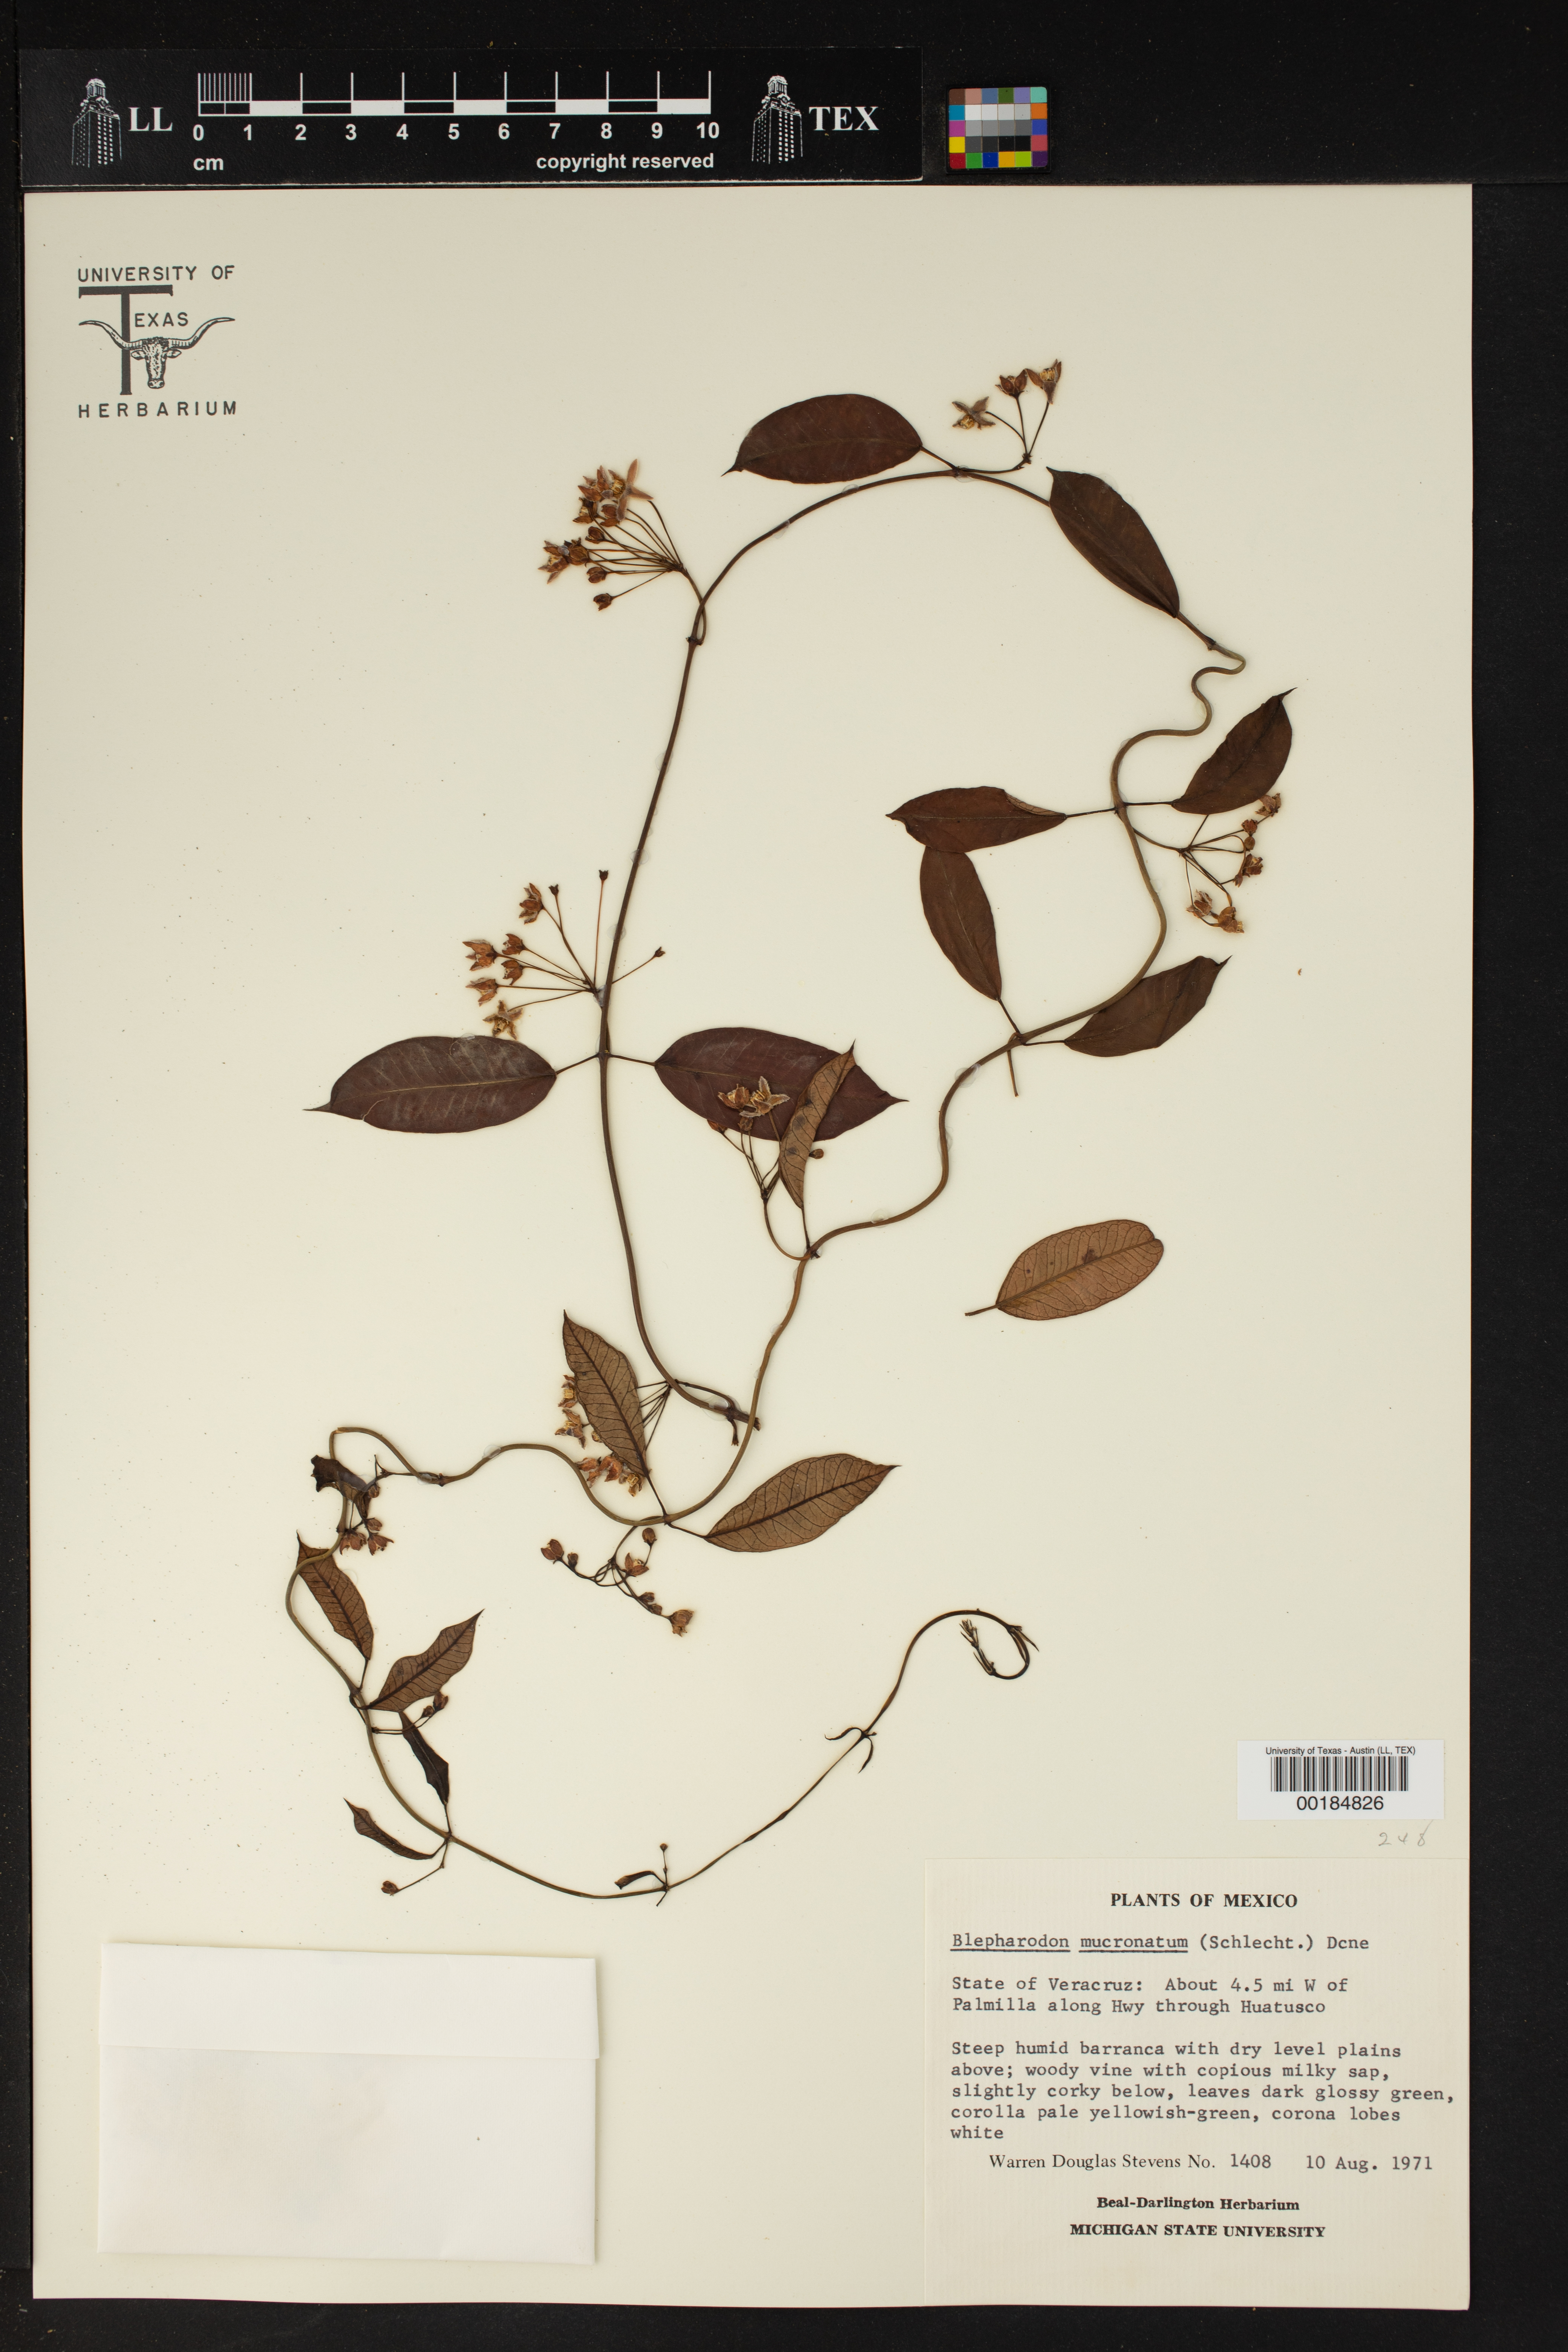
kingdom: Plantae
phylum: Tracheophyta
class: Magnoliopsida
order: Gentianales
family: Apocynaceae
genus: Vailia
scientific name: Vailia anomala
